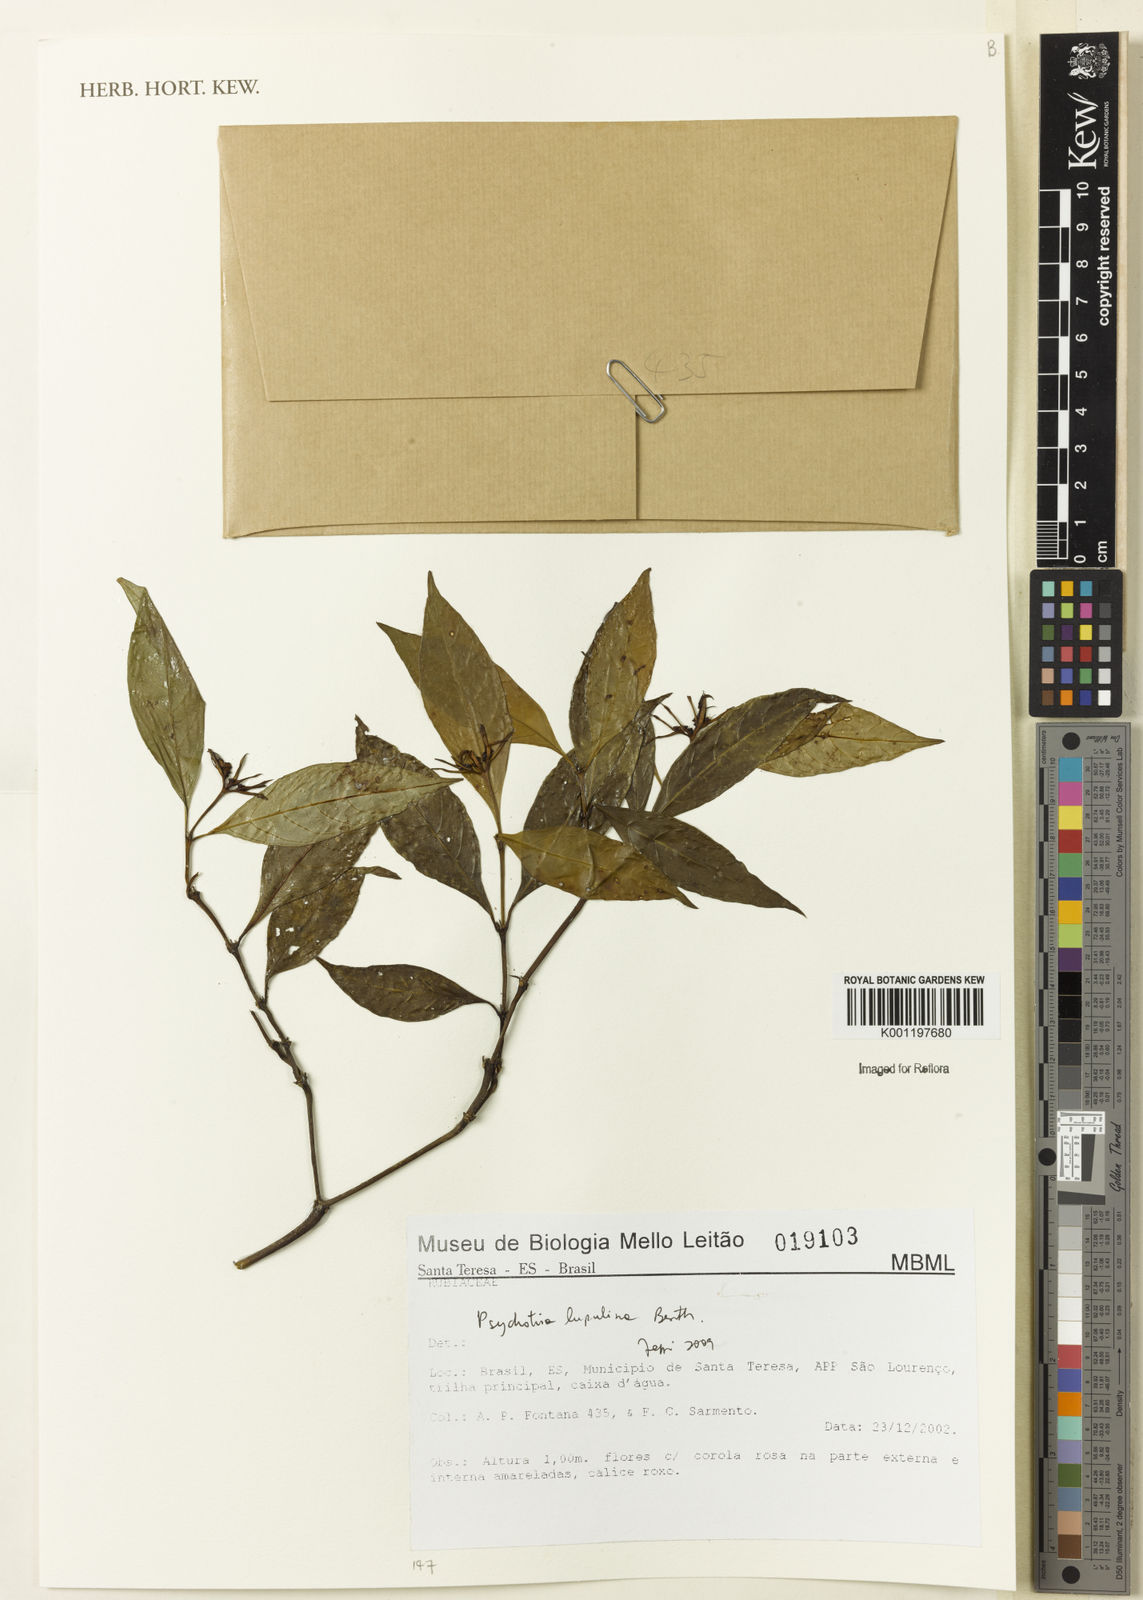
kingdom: Plantae
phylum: Tracheophyta
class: Magnoliopsida
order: Gentianales
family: Rubiaceae
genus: Palicourea
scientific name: Palicourea justiciifolia
